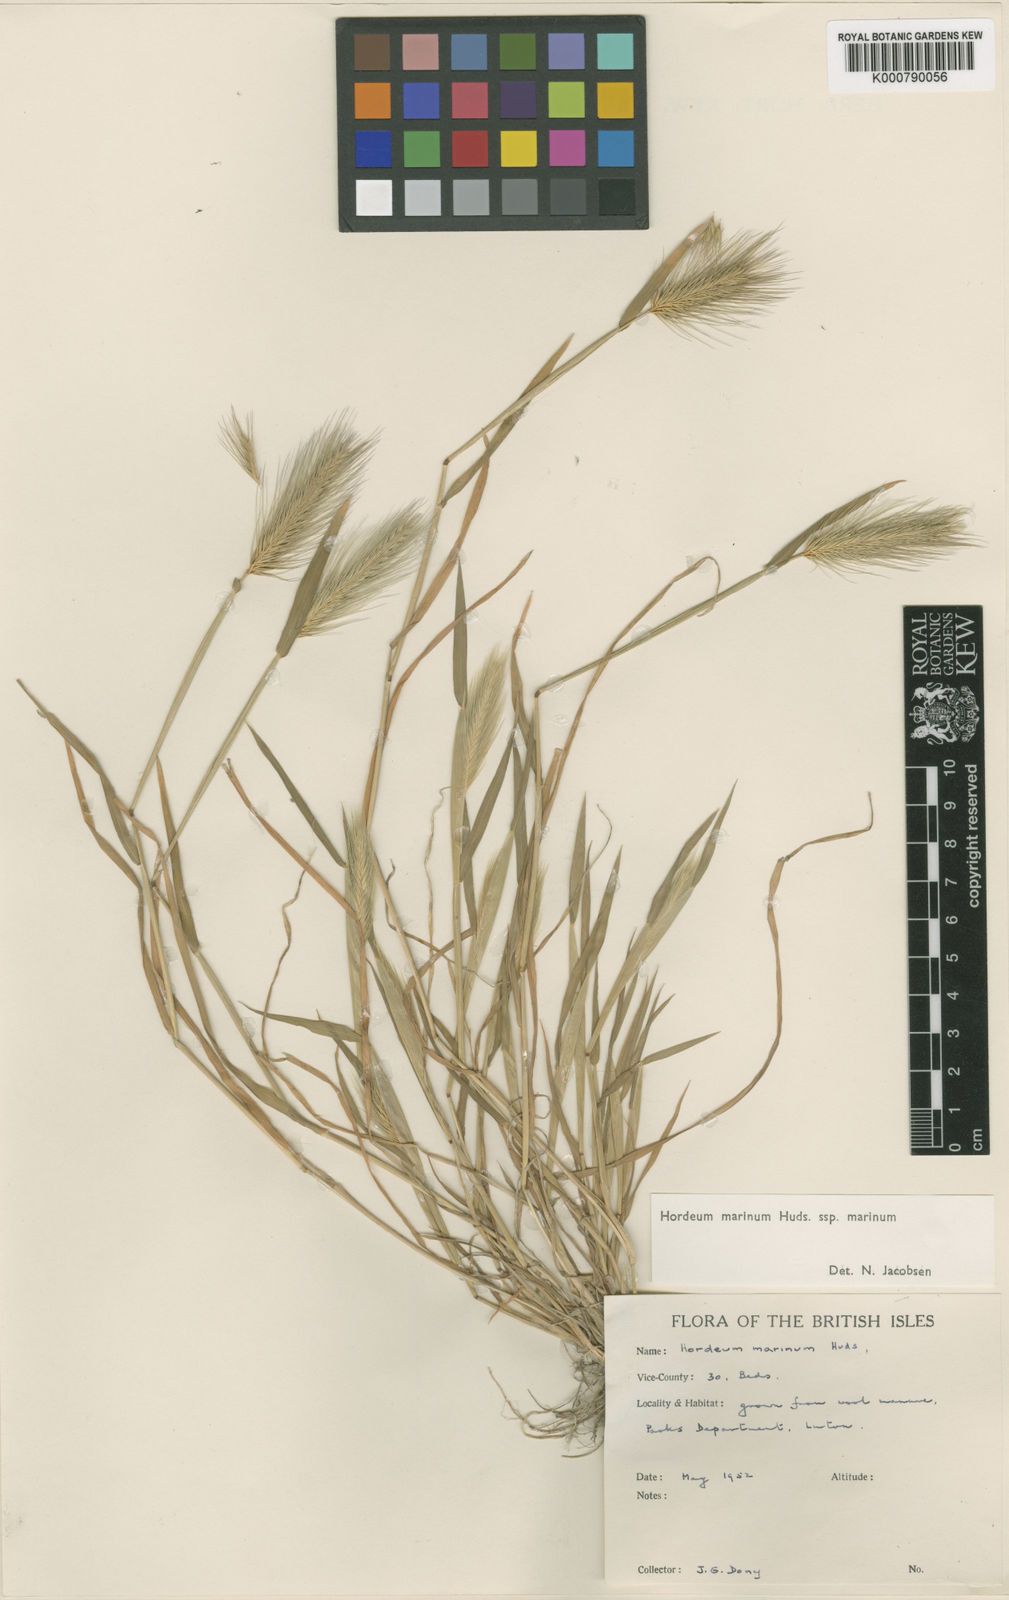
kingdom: Plantae
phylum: Tracheophyta
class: Liliopsida
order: Poales
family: Poaceae
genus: Hordeum
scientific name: Hordeum marinum
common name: Sea barley
